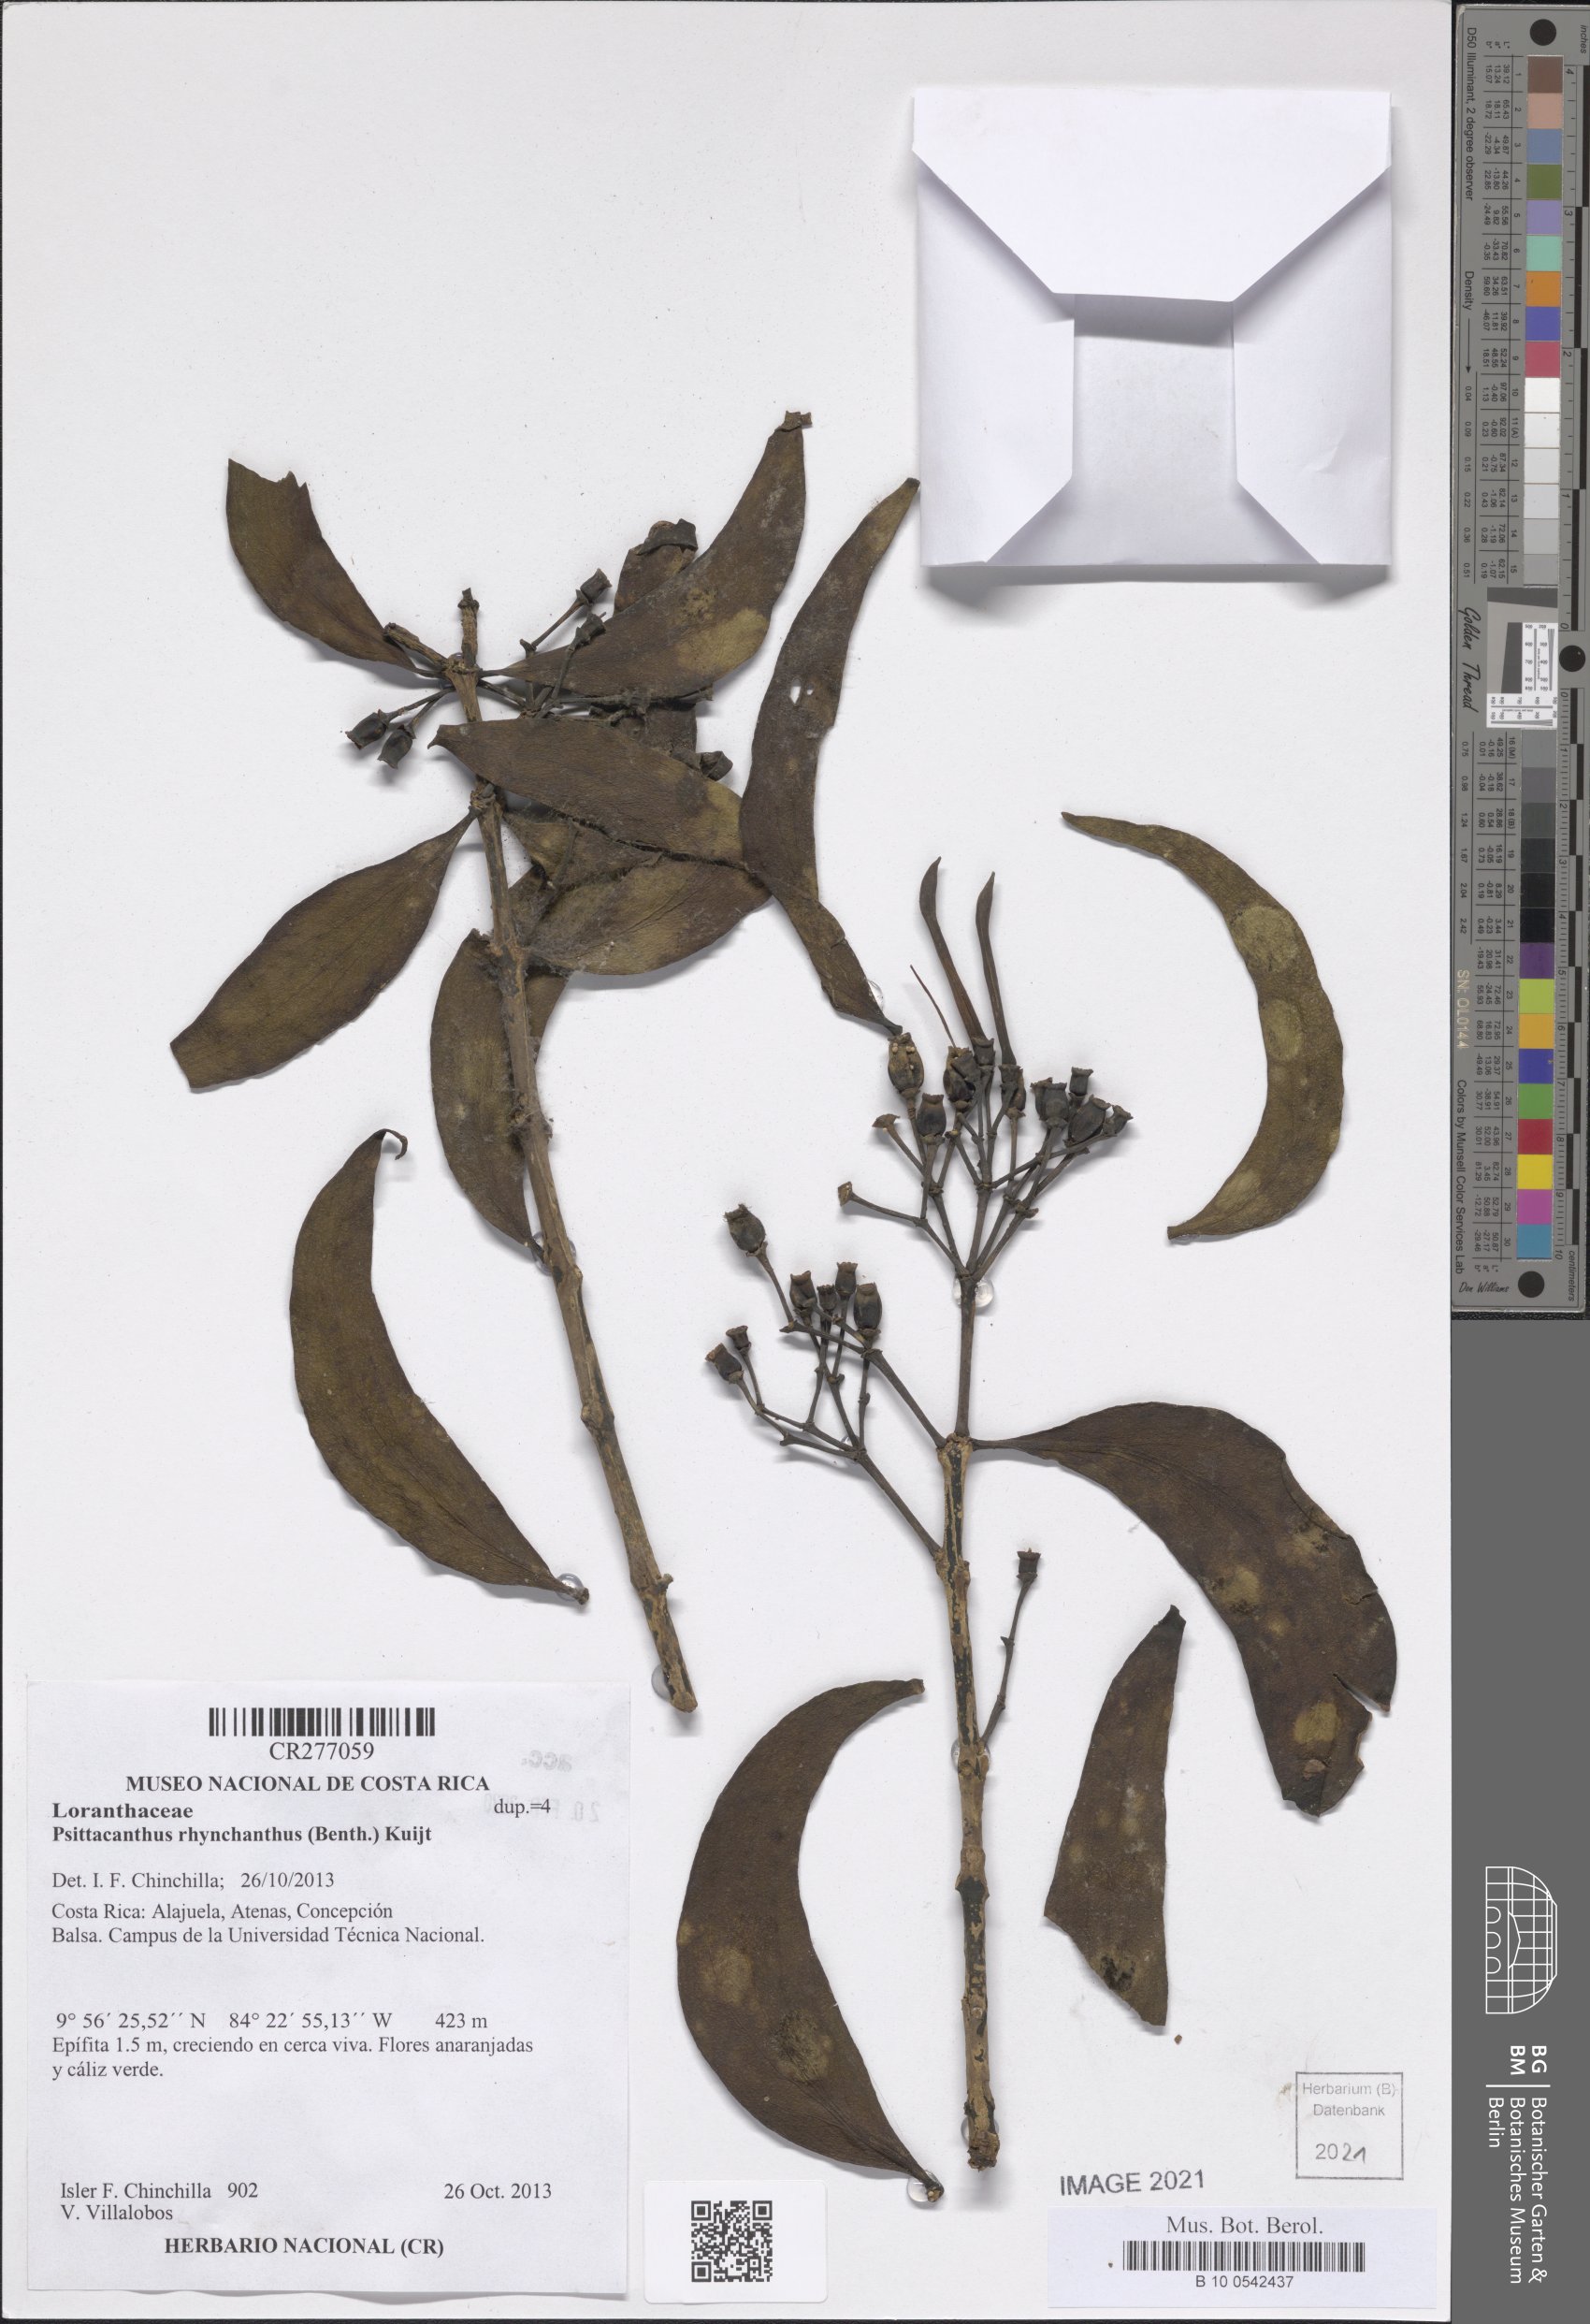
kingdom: Plantae
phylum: Tracheophyta
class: Magnoliopsida
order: Santalales
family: Loranthaceae
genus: Psittacanthus
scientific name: Psittacanthus rhynchanthus
